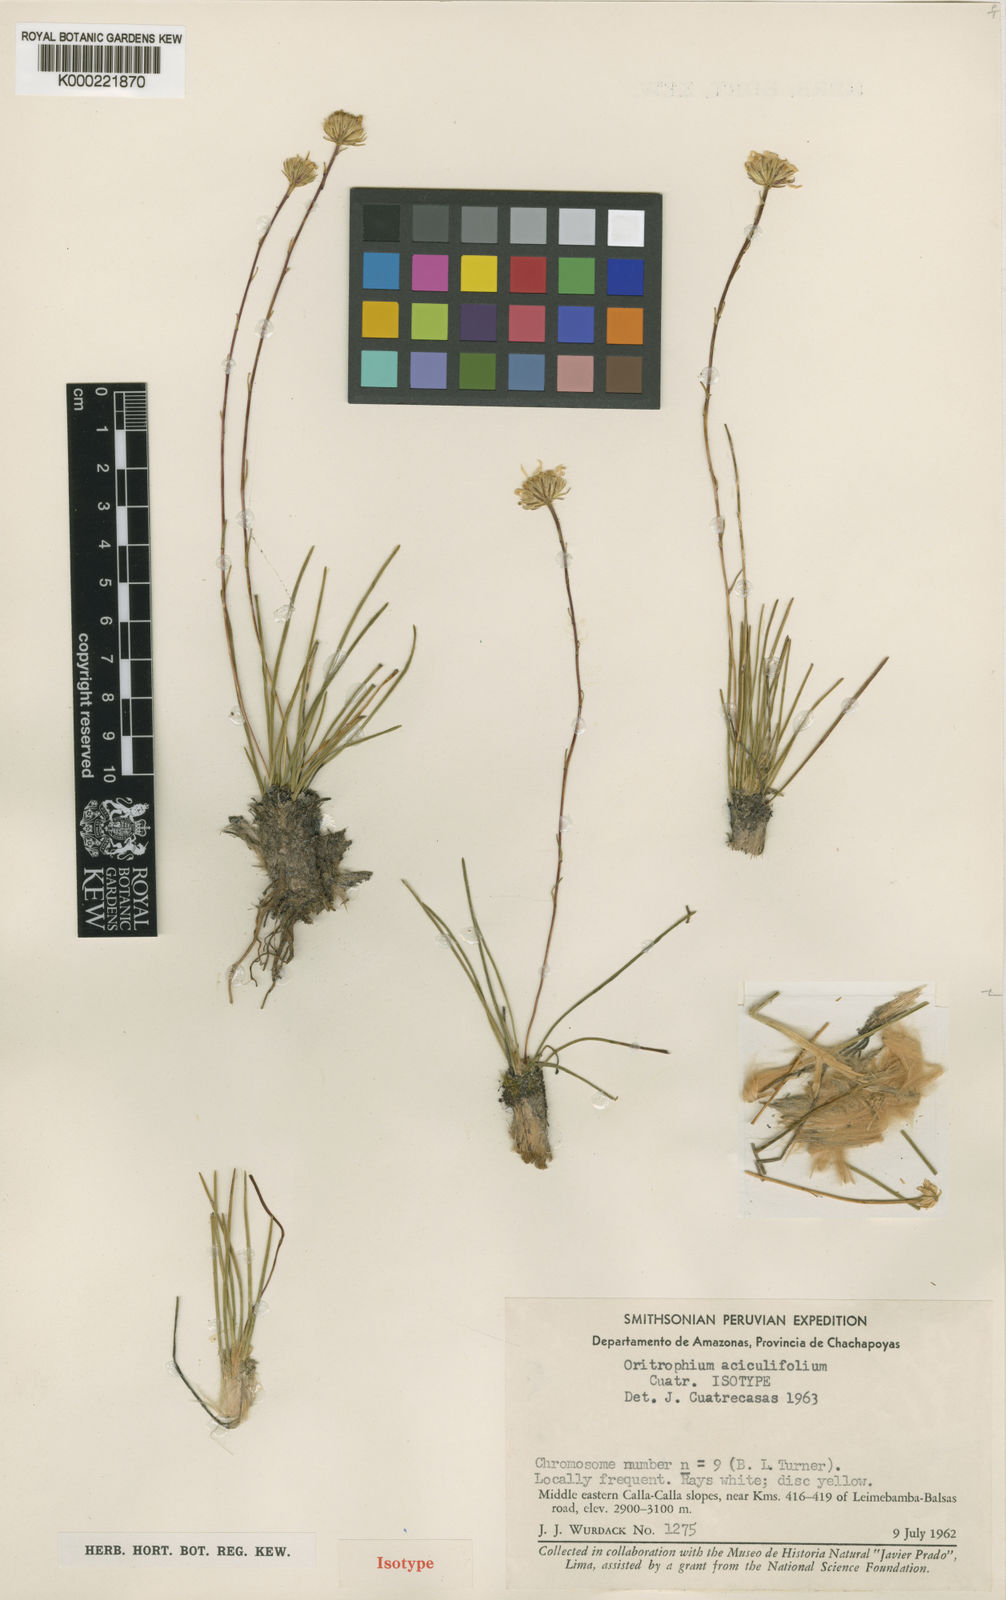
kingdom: Plantae
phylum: Tracheophyta
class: Magnoliopsida
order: Asterales
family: Asteraceae
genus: Oritrophium
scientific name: Oritrophium aciculifolium
